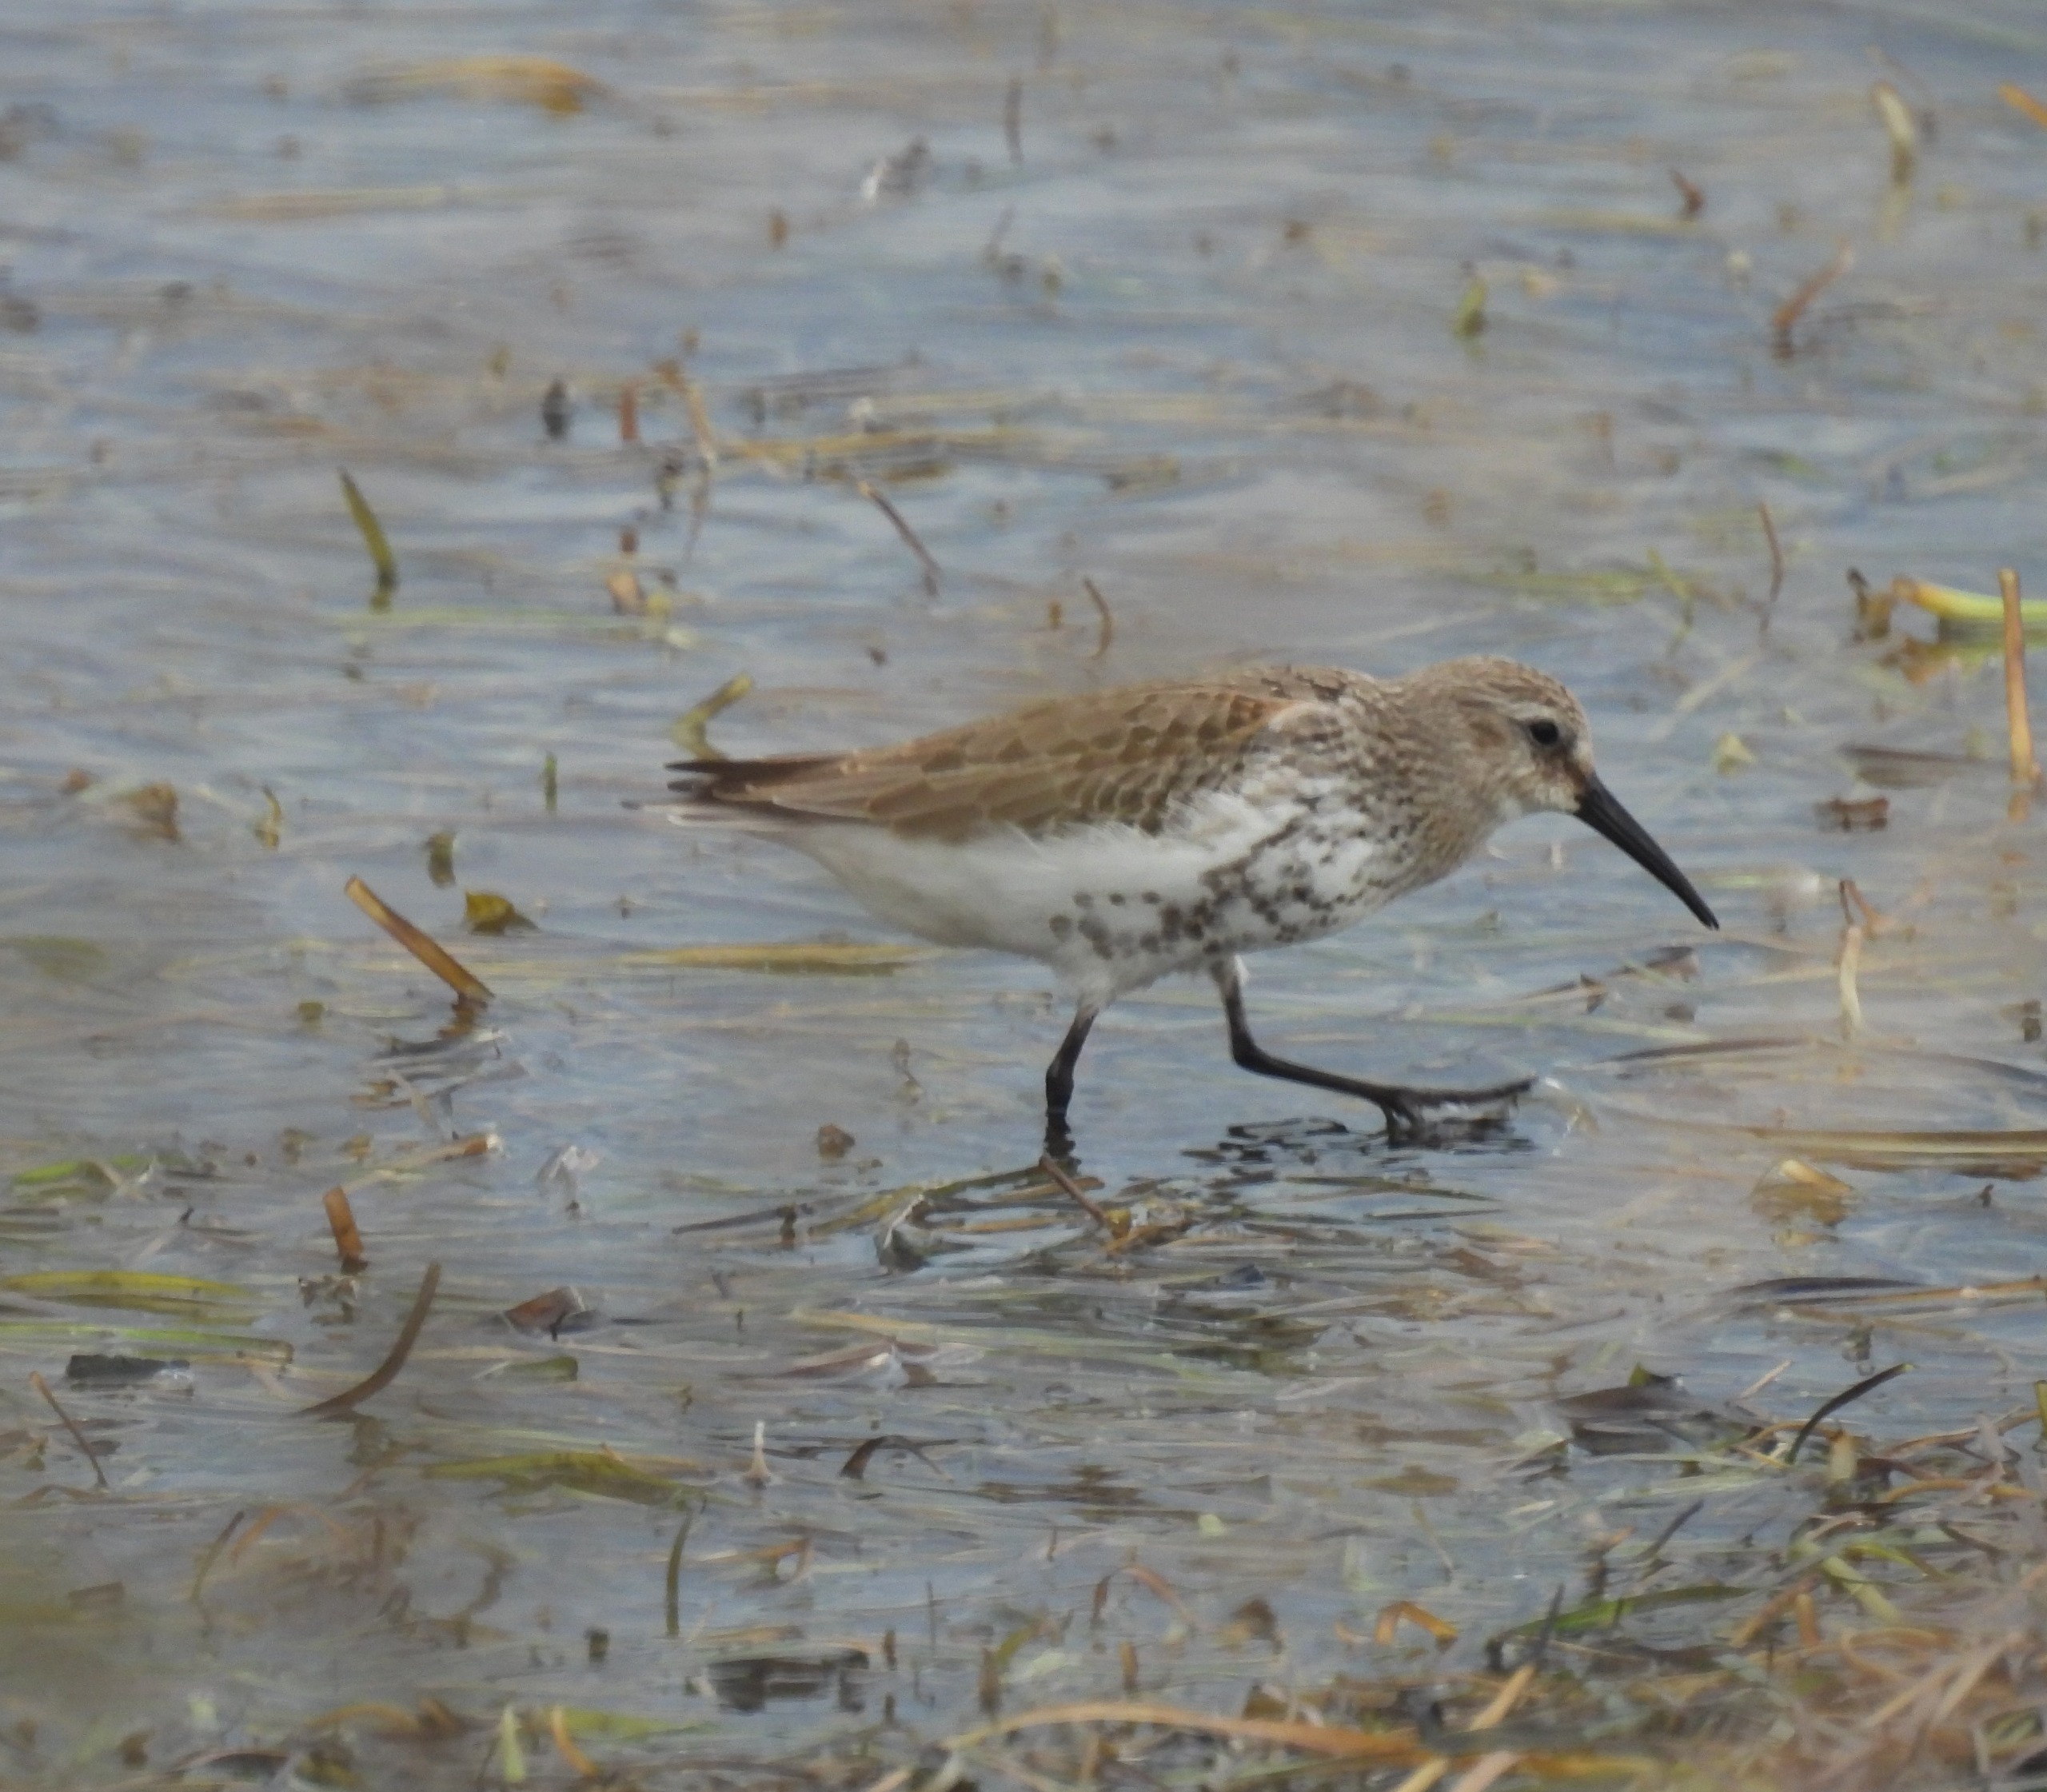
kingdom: Animalia
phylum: Chordata
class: Aves
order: Charadriiformes
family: Scolopacidae
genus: Calidris
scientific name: Calidris alpina
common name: Almindelig ryle
